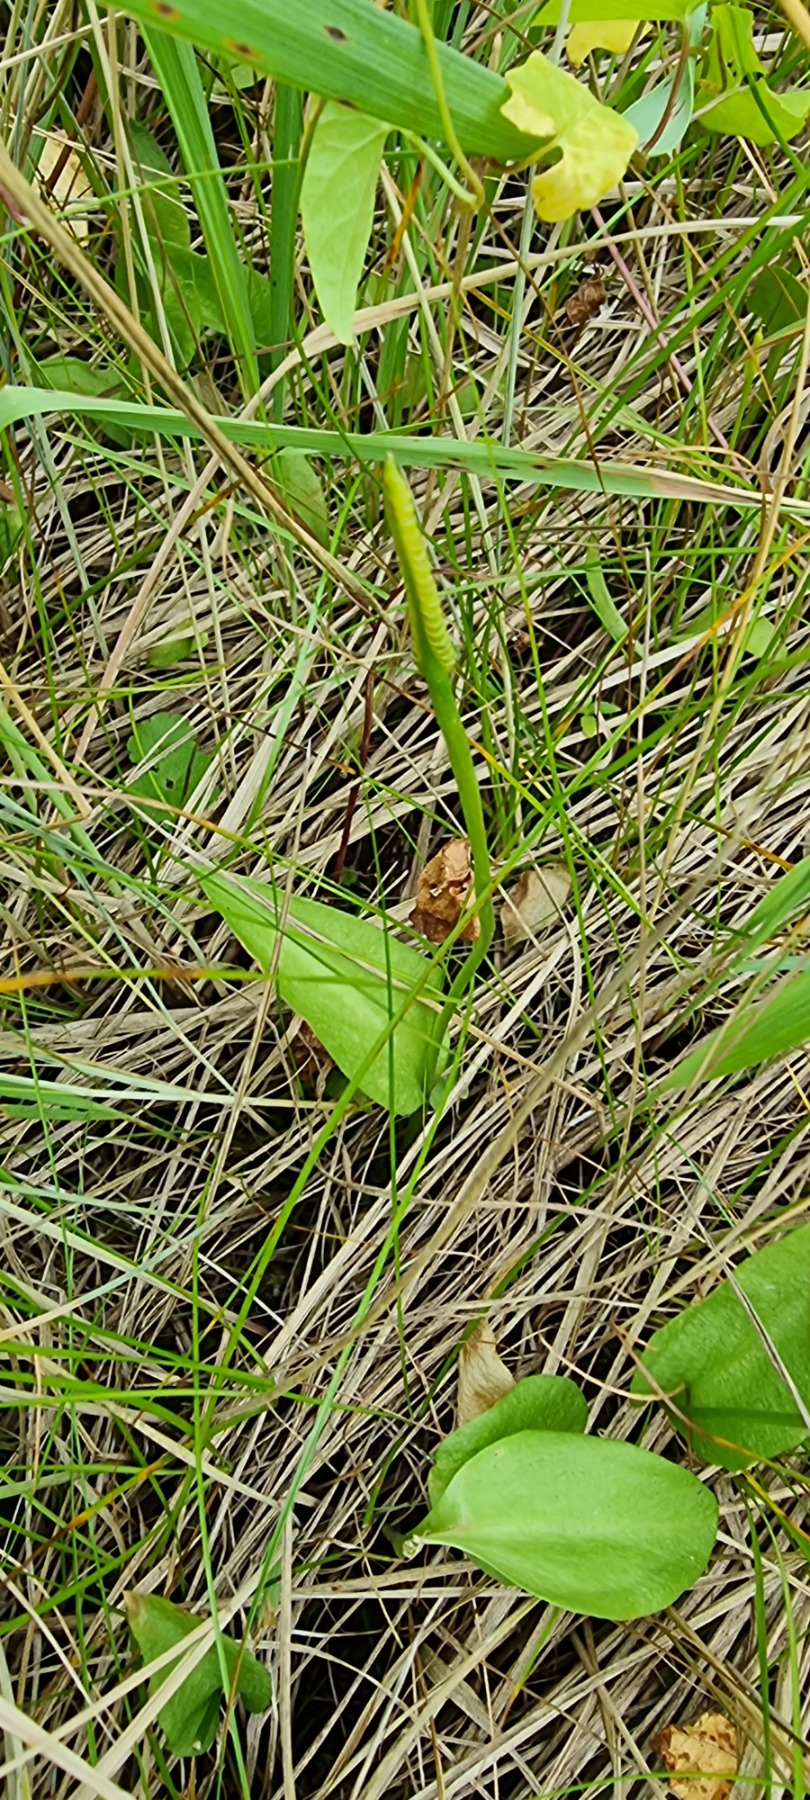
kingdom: Plantae
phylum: Tracheophyta
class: Polypodiopsida
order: Ophioglossales
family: Ophioglossaceae
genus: Ophioglossum
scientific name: Ophioglossum vulgatum
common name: Slangetunge
